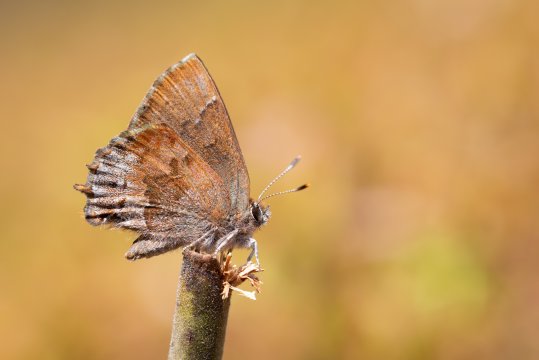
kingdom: Animalia
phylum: Arthropoda
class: Insecta
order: Lepidoptera
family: Lycaenidae
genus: Thecla
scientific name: Thecla irus
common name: Frosted Elfin
